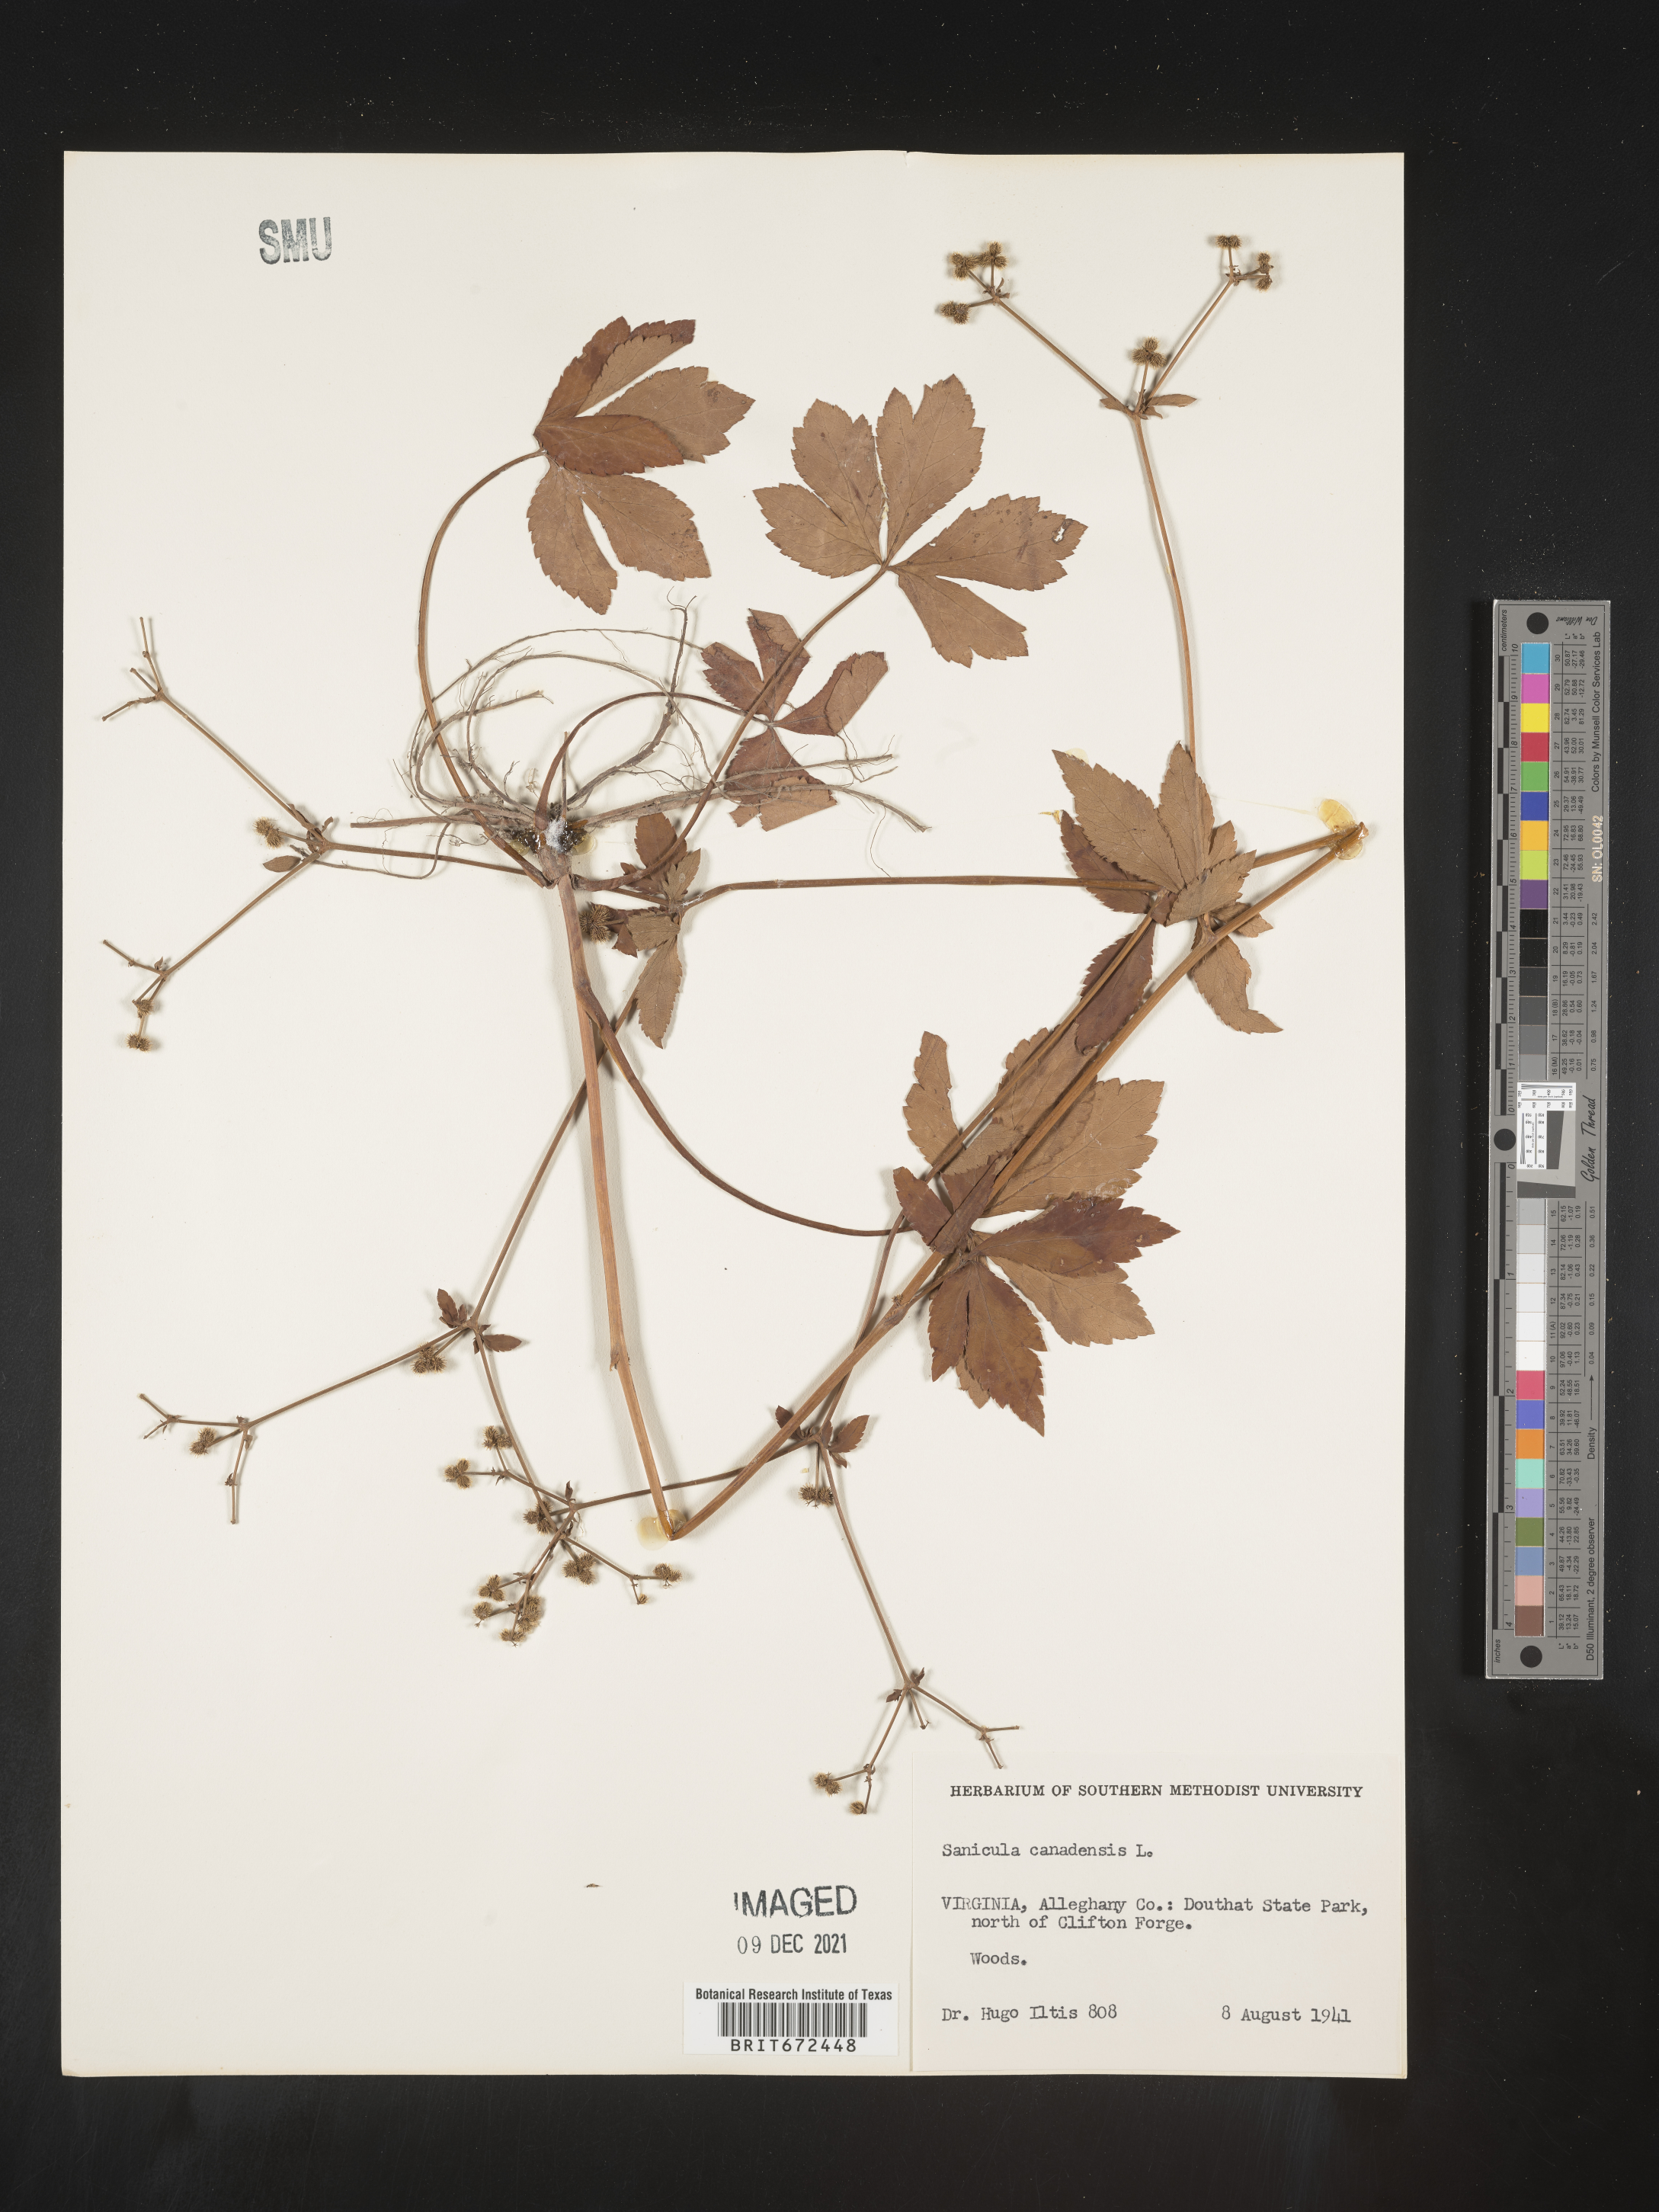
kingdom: Plantae
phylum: Tracheophyta
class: Magnoliopsida
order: Apiales
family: Apiaceae
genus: Sanicula
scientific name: Sanicula canadensis
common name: Canada sanicle
